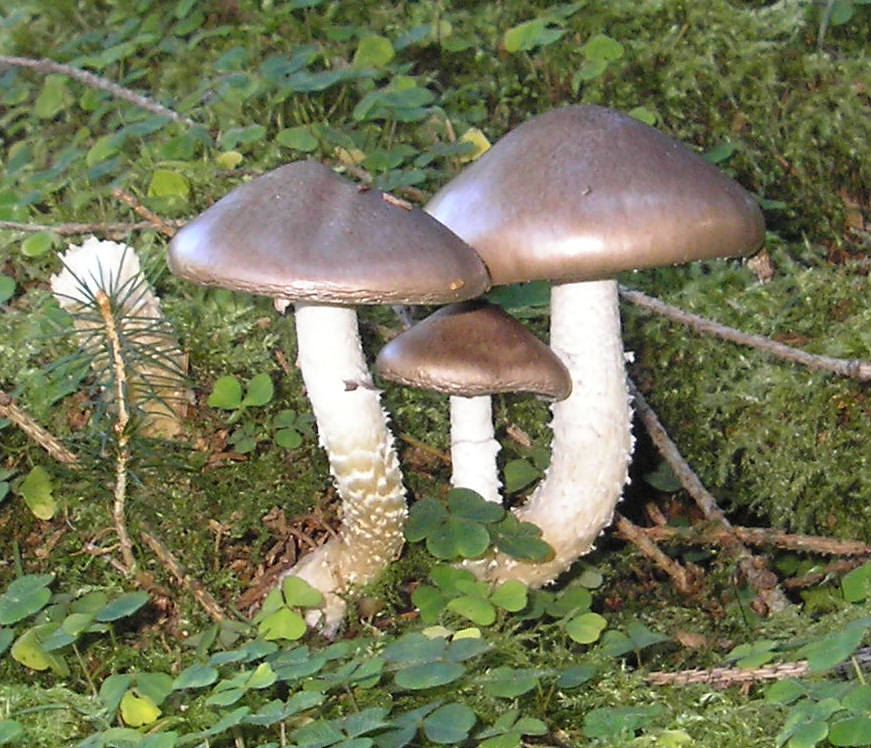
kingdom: Fungi
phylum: Basidiomycota
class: Agaricomycetes
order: Agaricales
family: Strophariaceae
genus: Stropharia
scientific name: Stropharia hornemannii
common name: nordisk bredblad
